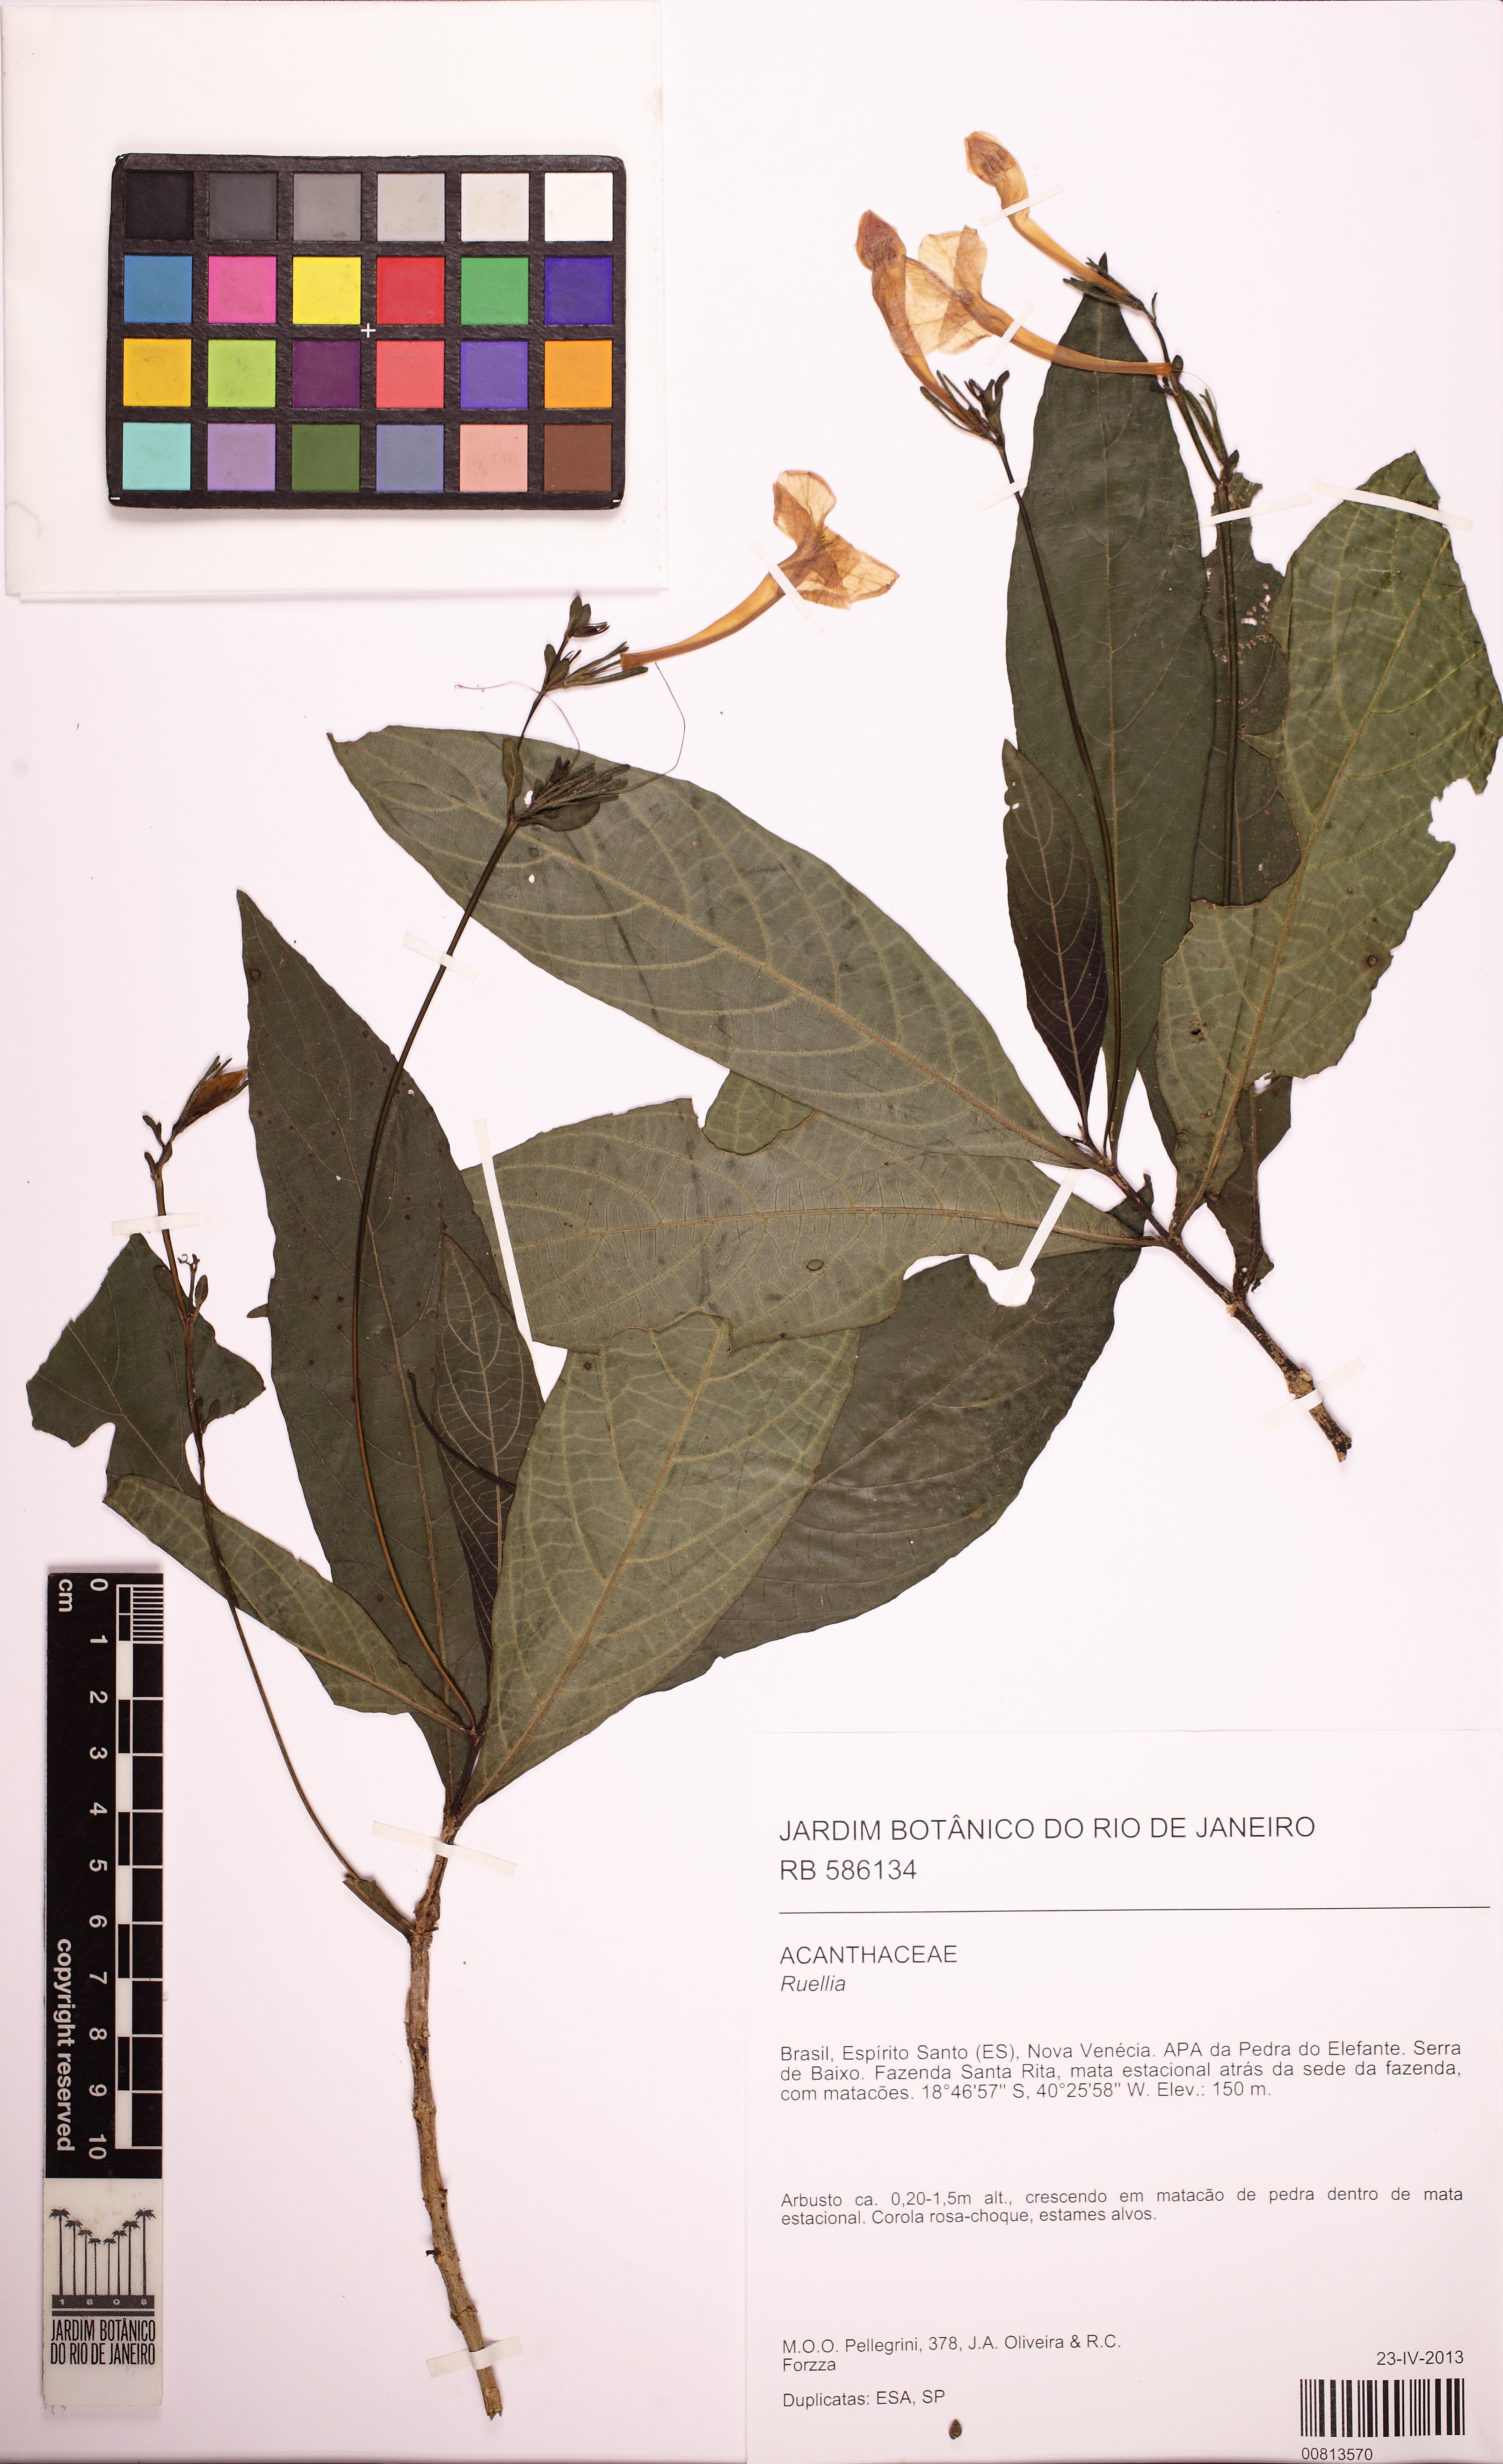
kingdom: Plantae
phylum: Tracheophyta
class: Magnoliopsida
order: Lamiales
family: Acanthaceae
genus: Ruellia
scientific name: Ruellia subsessilis
